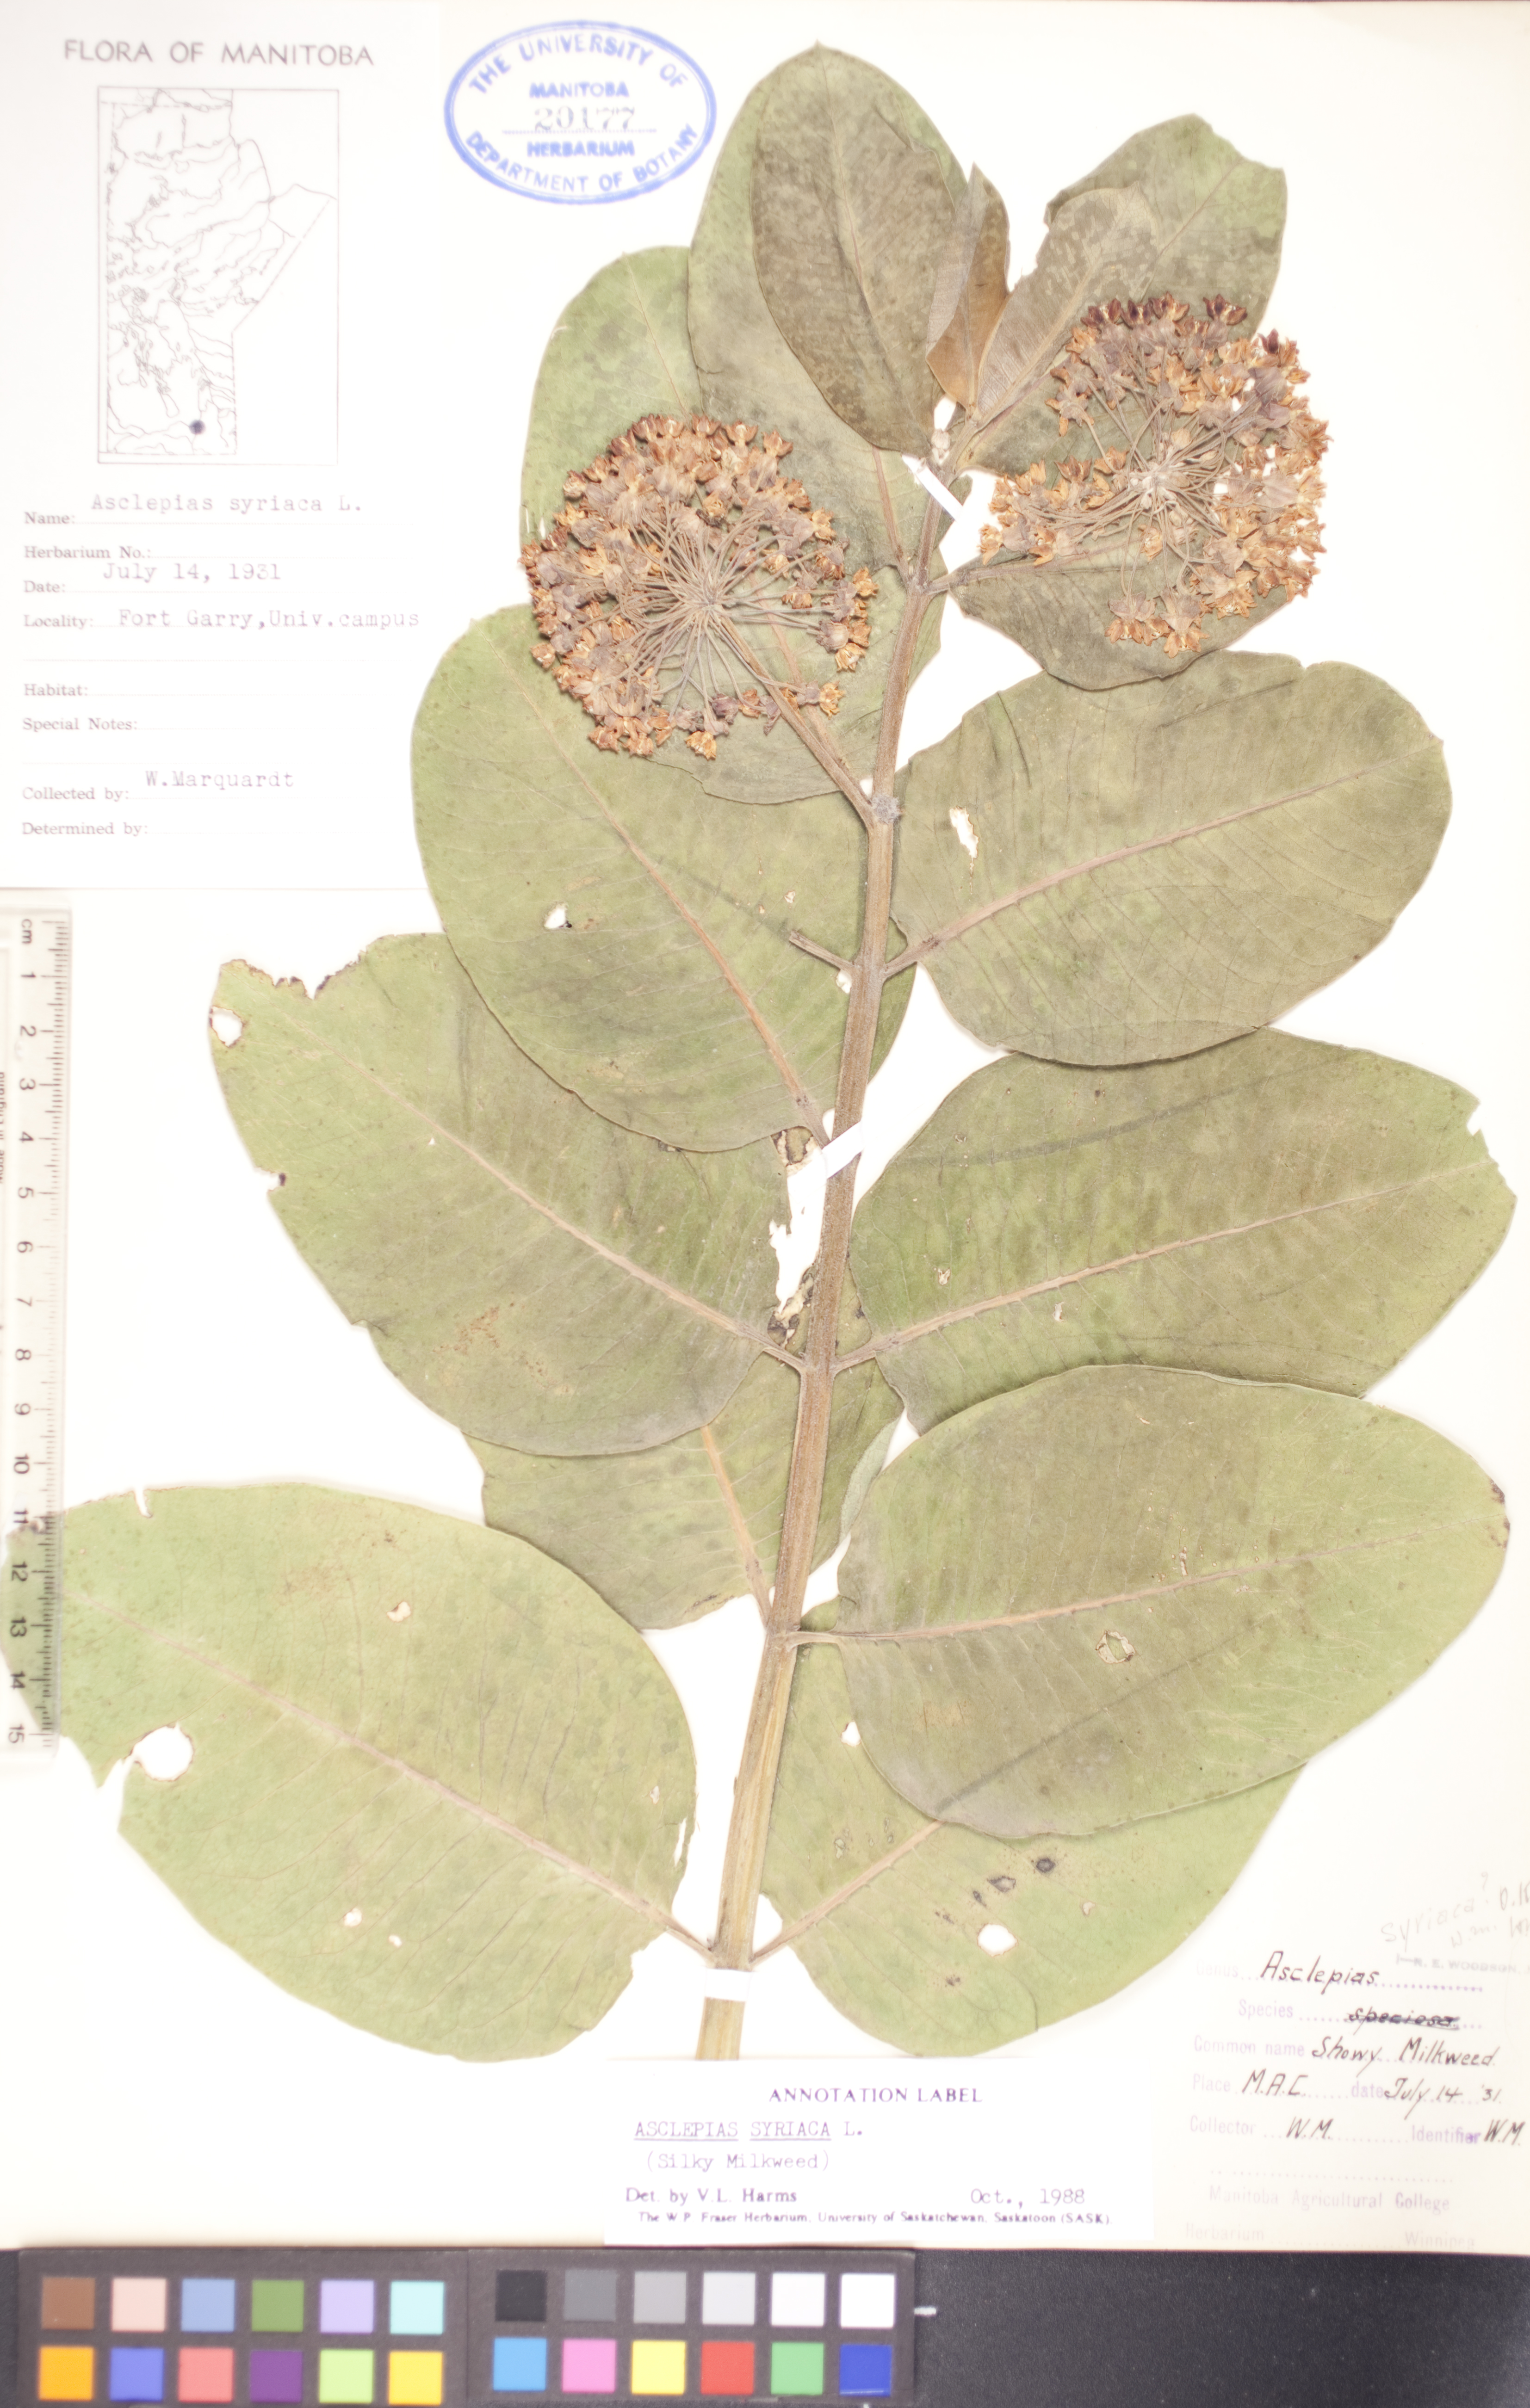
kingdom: Plantae
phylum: Tracheophyta
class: Magnoliopsida
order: Gentianales
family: Apocynaceae
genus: Asclepias
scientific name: Asclepias syriaca
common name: Common milkweed
